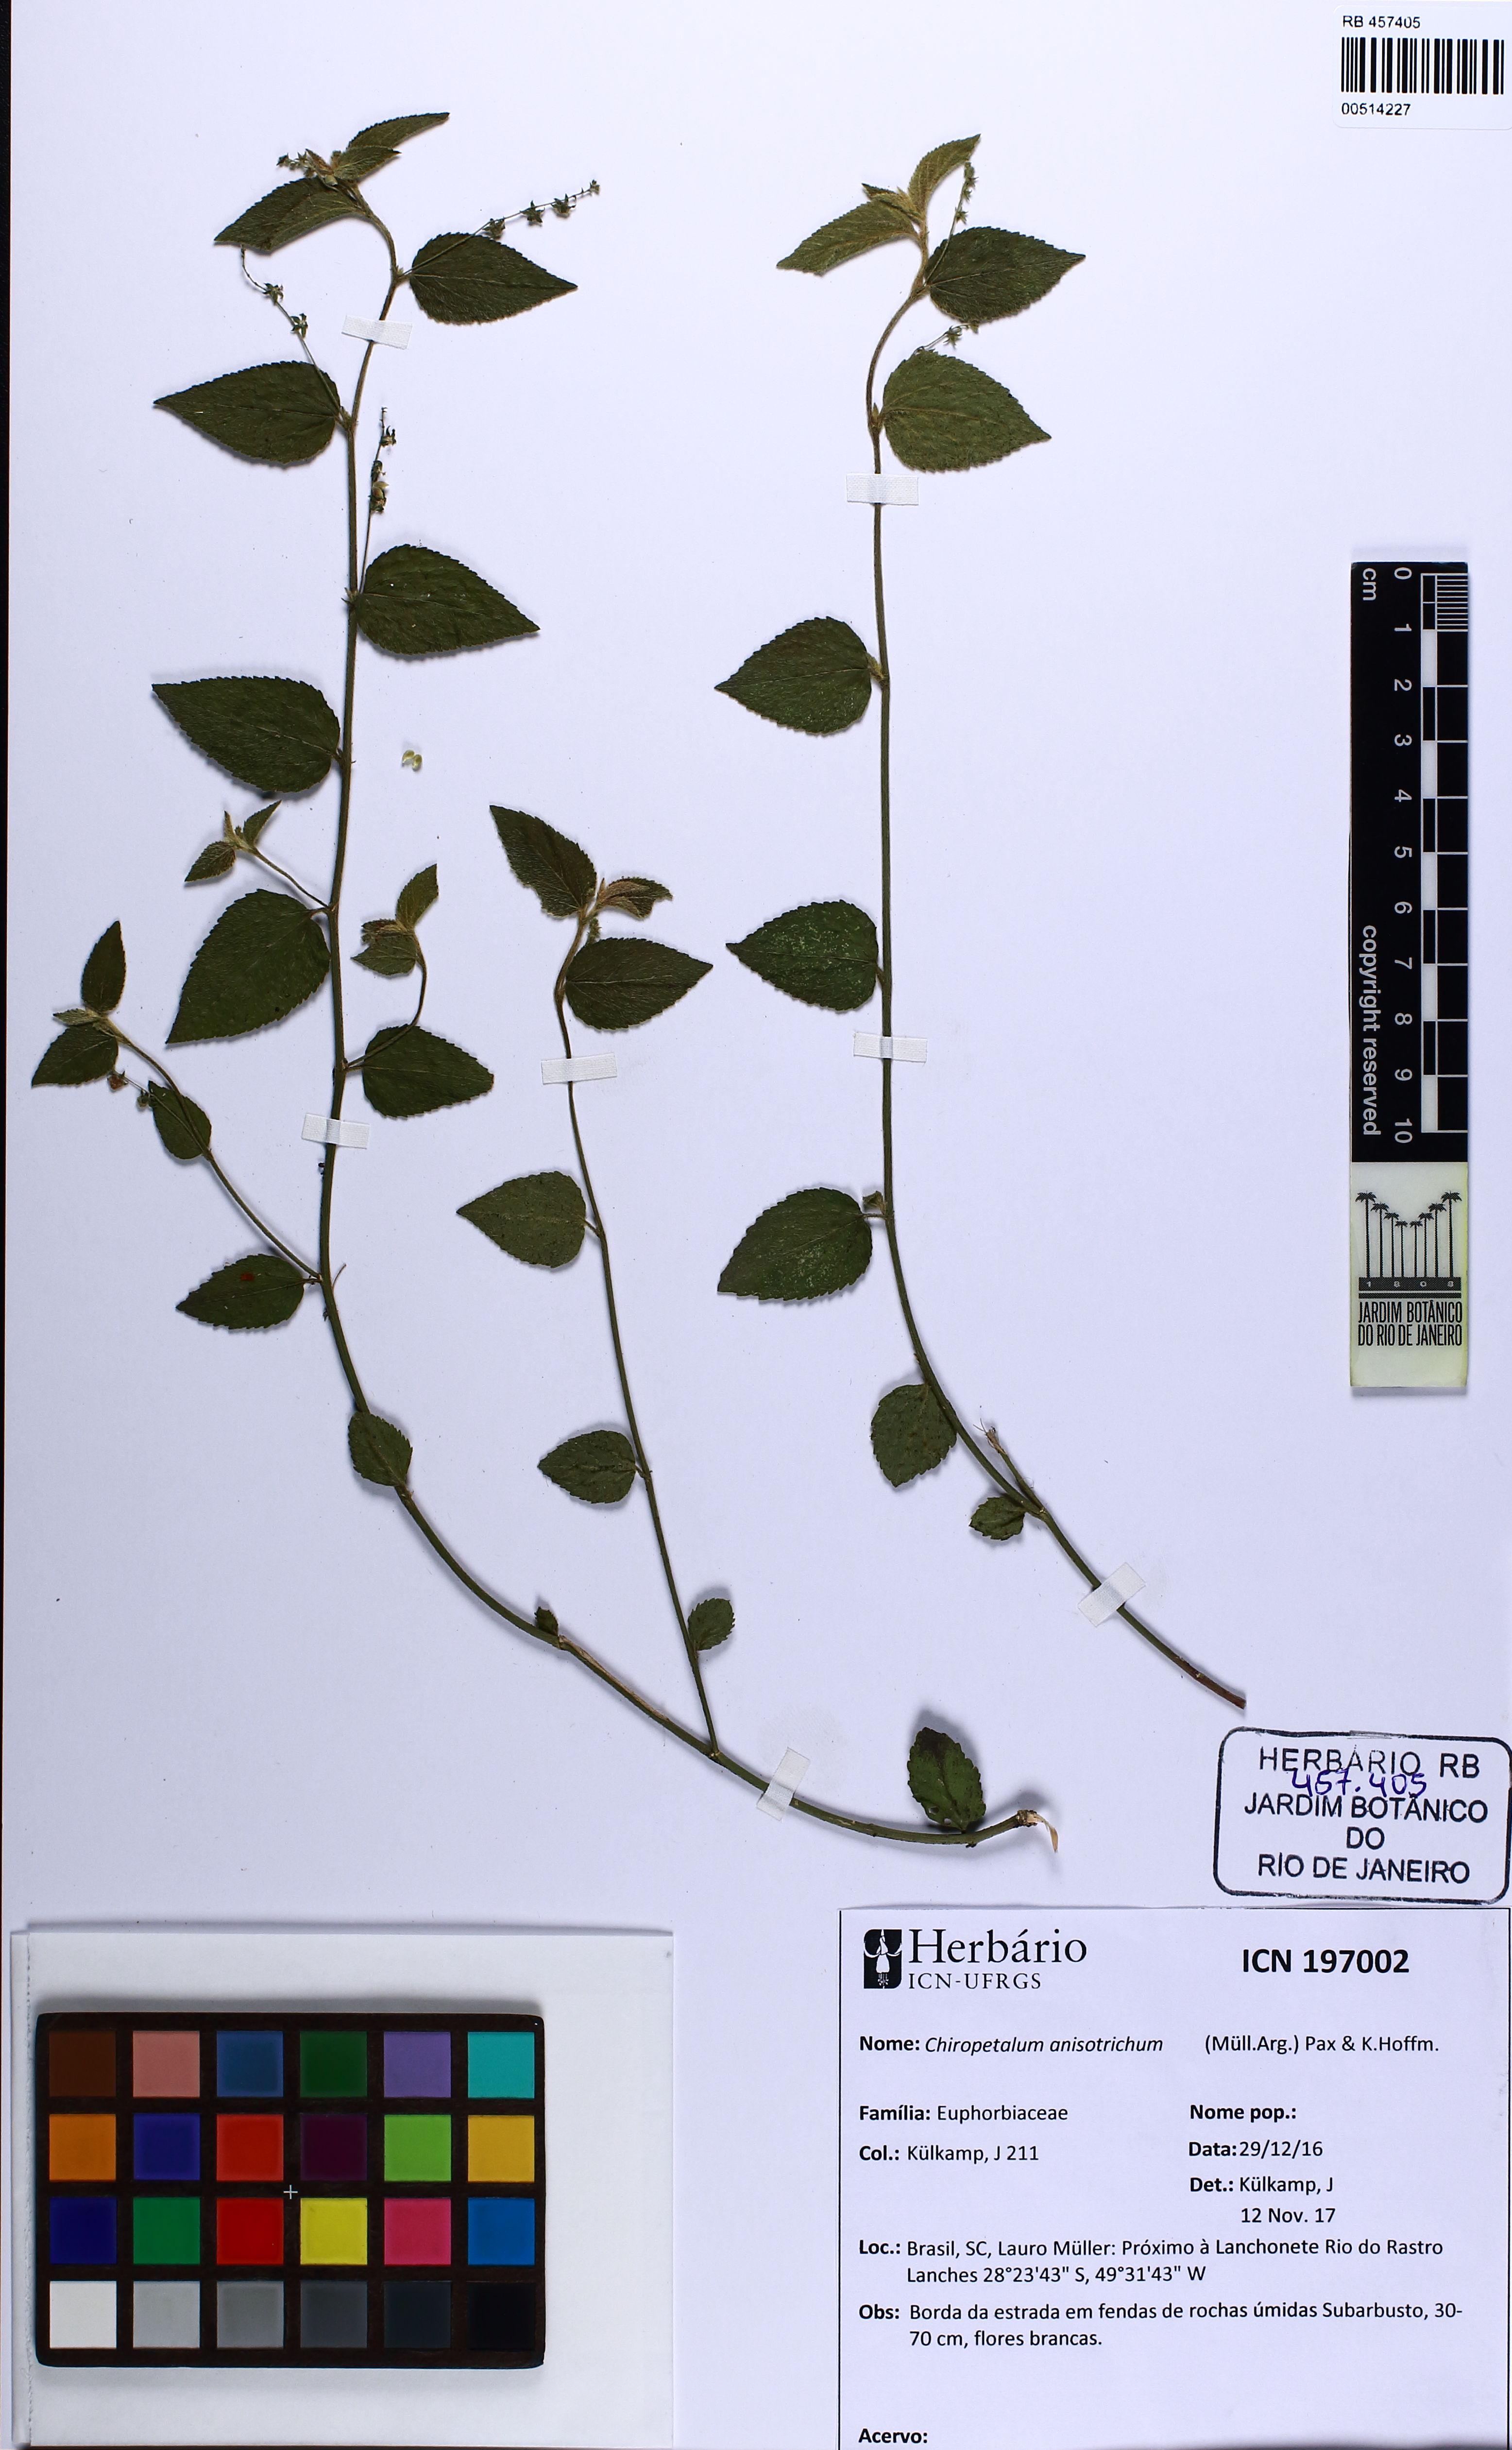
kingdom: Plantae
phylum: Tracheophyta
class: Magnoliopsida
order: Malpighiales
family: Euphorbiaceae
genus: Chiropetalum
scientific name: Chiropetalum anisotrichum
